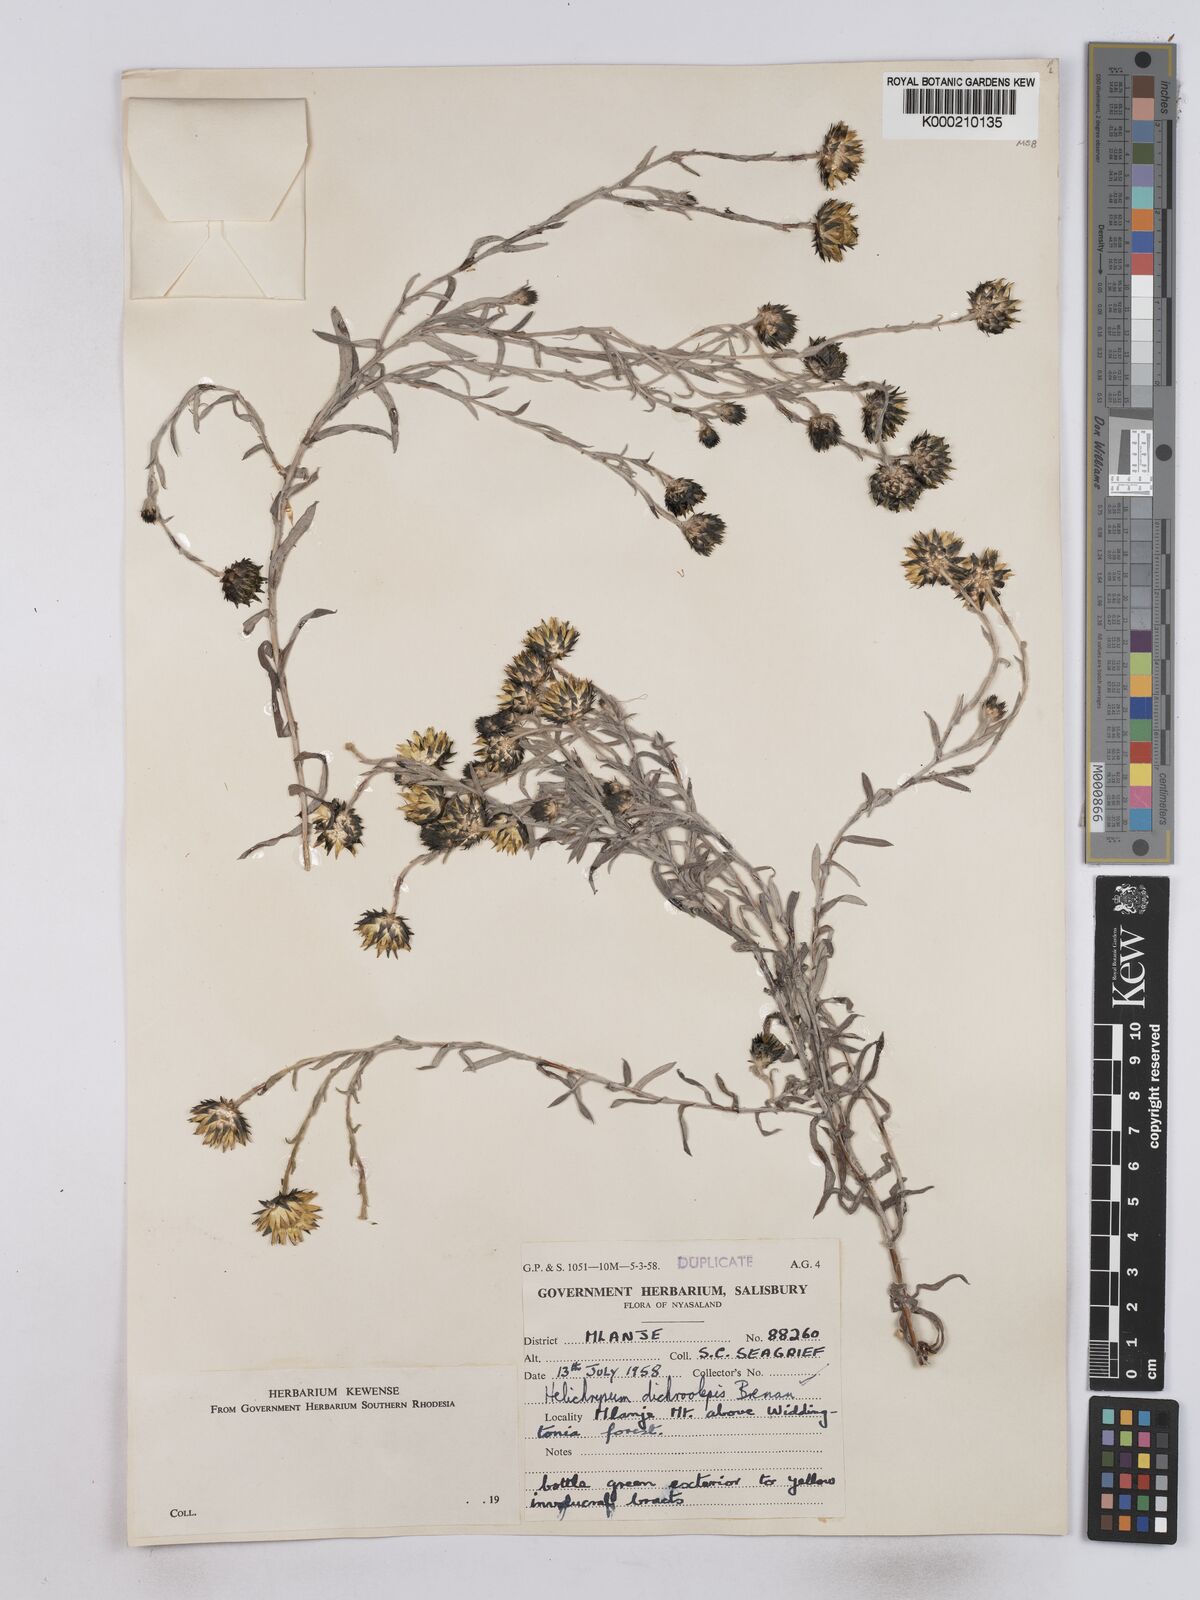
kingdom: Plantae
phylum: Tracheophyta
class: Magnoliopsida
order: Asterales
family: Asteraceae
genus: Helichrysum
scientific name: Helichrysum
